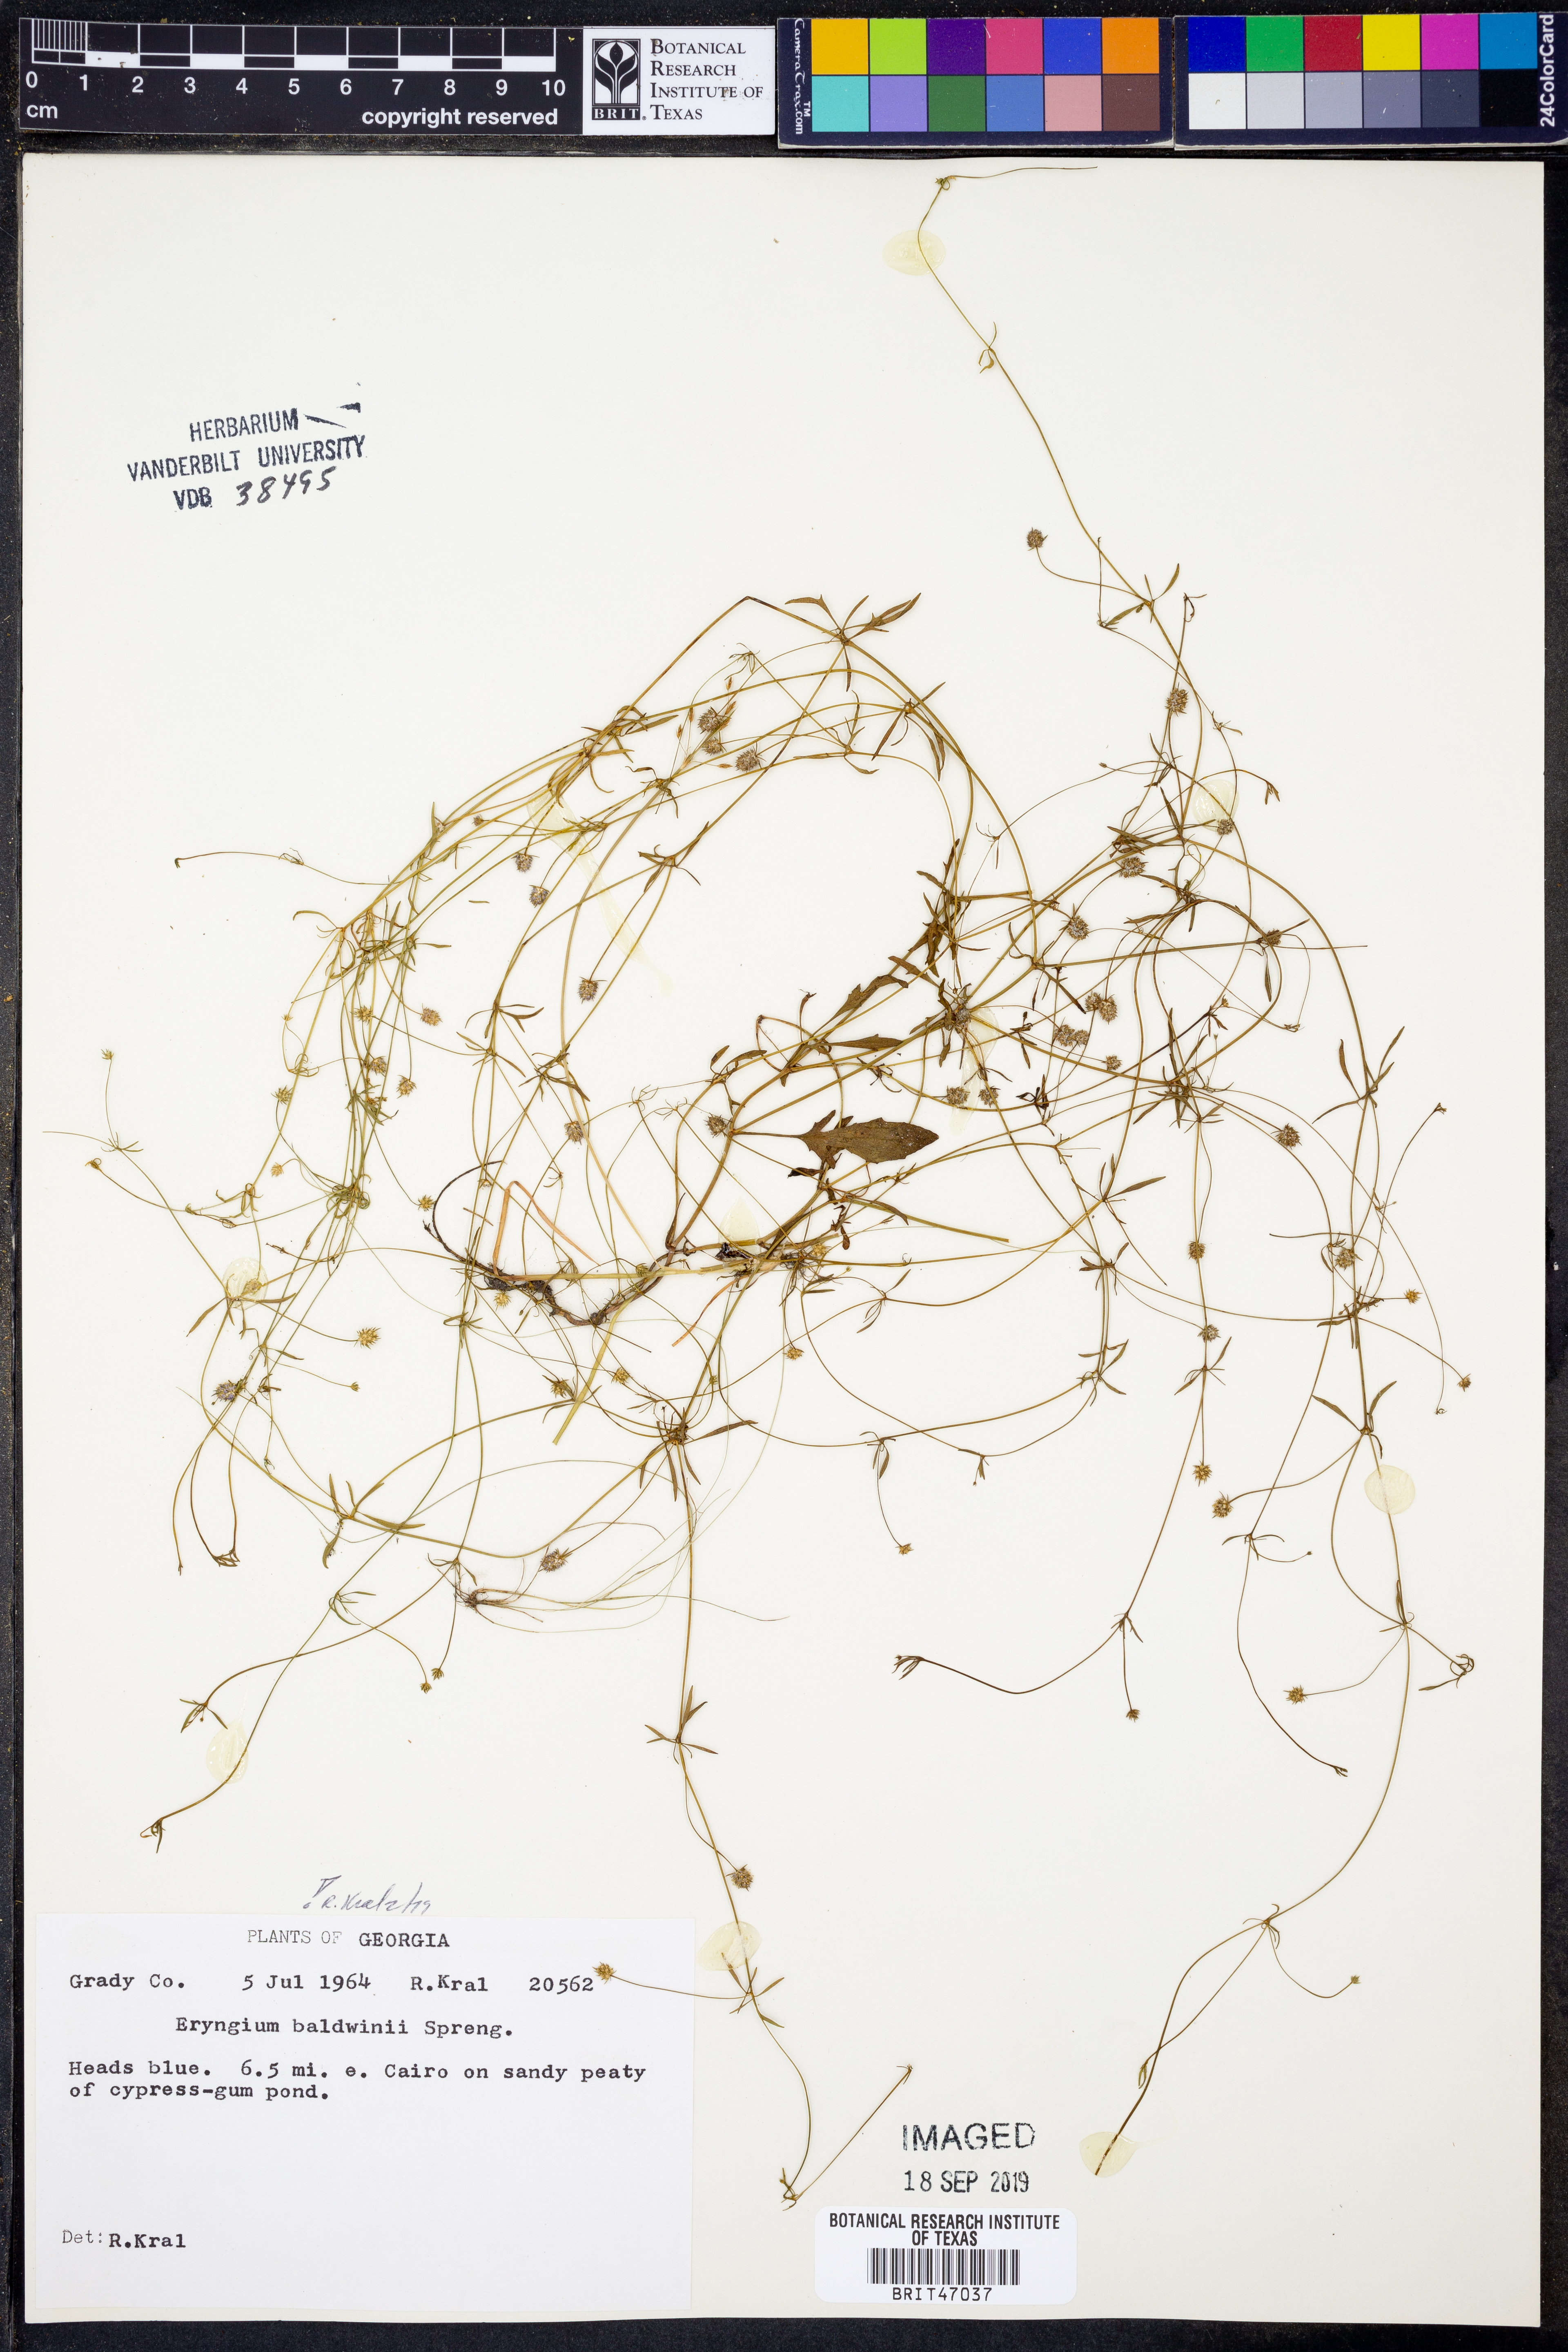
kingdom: Plantae
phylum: Tracheophyta
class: Magnoliopsida
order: Apiales
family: Apiaceae
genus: Eryngium
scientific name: Eryngium baldwinii
